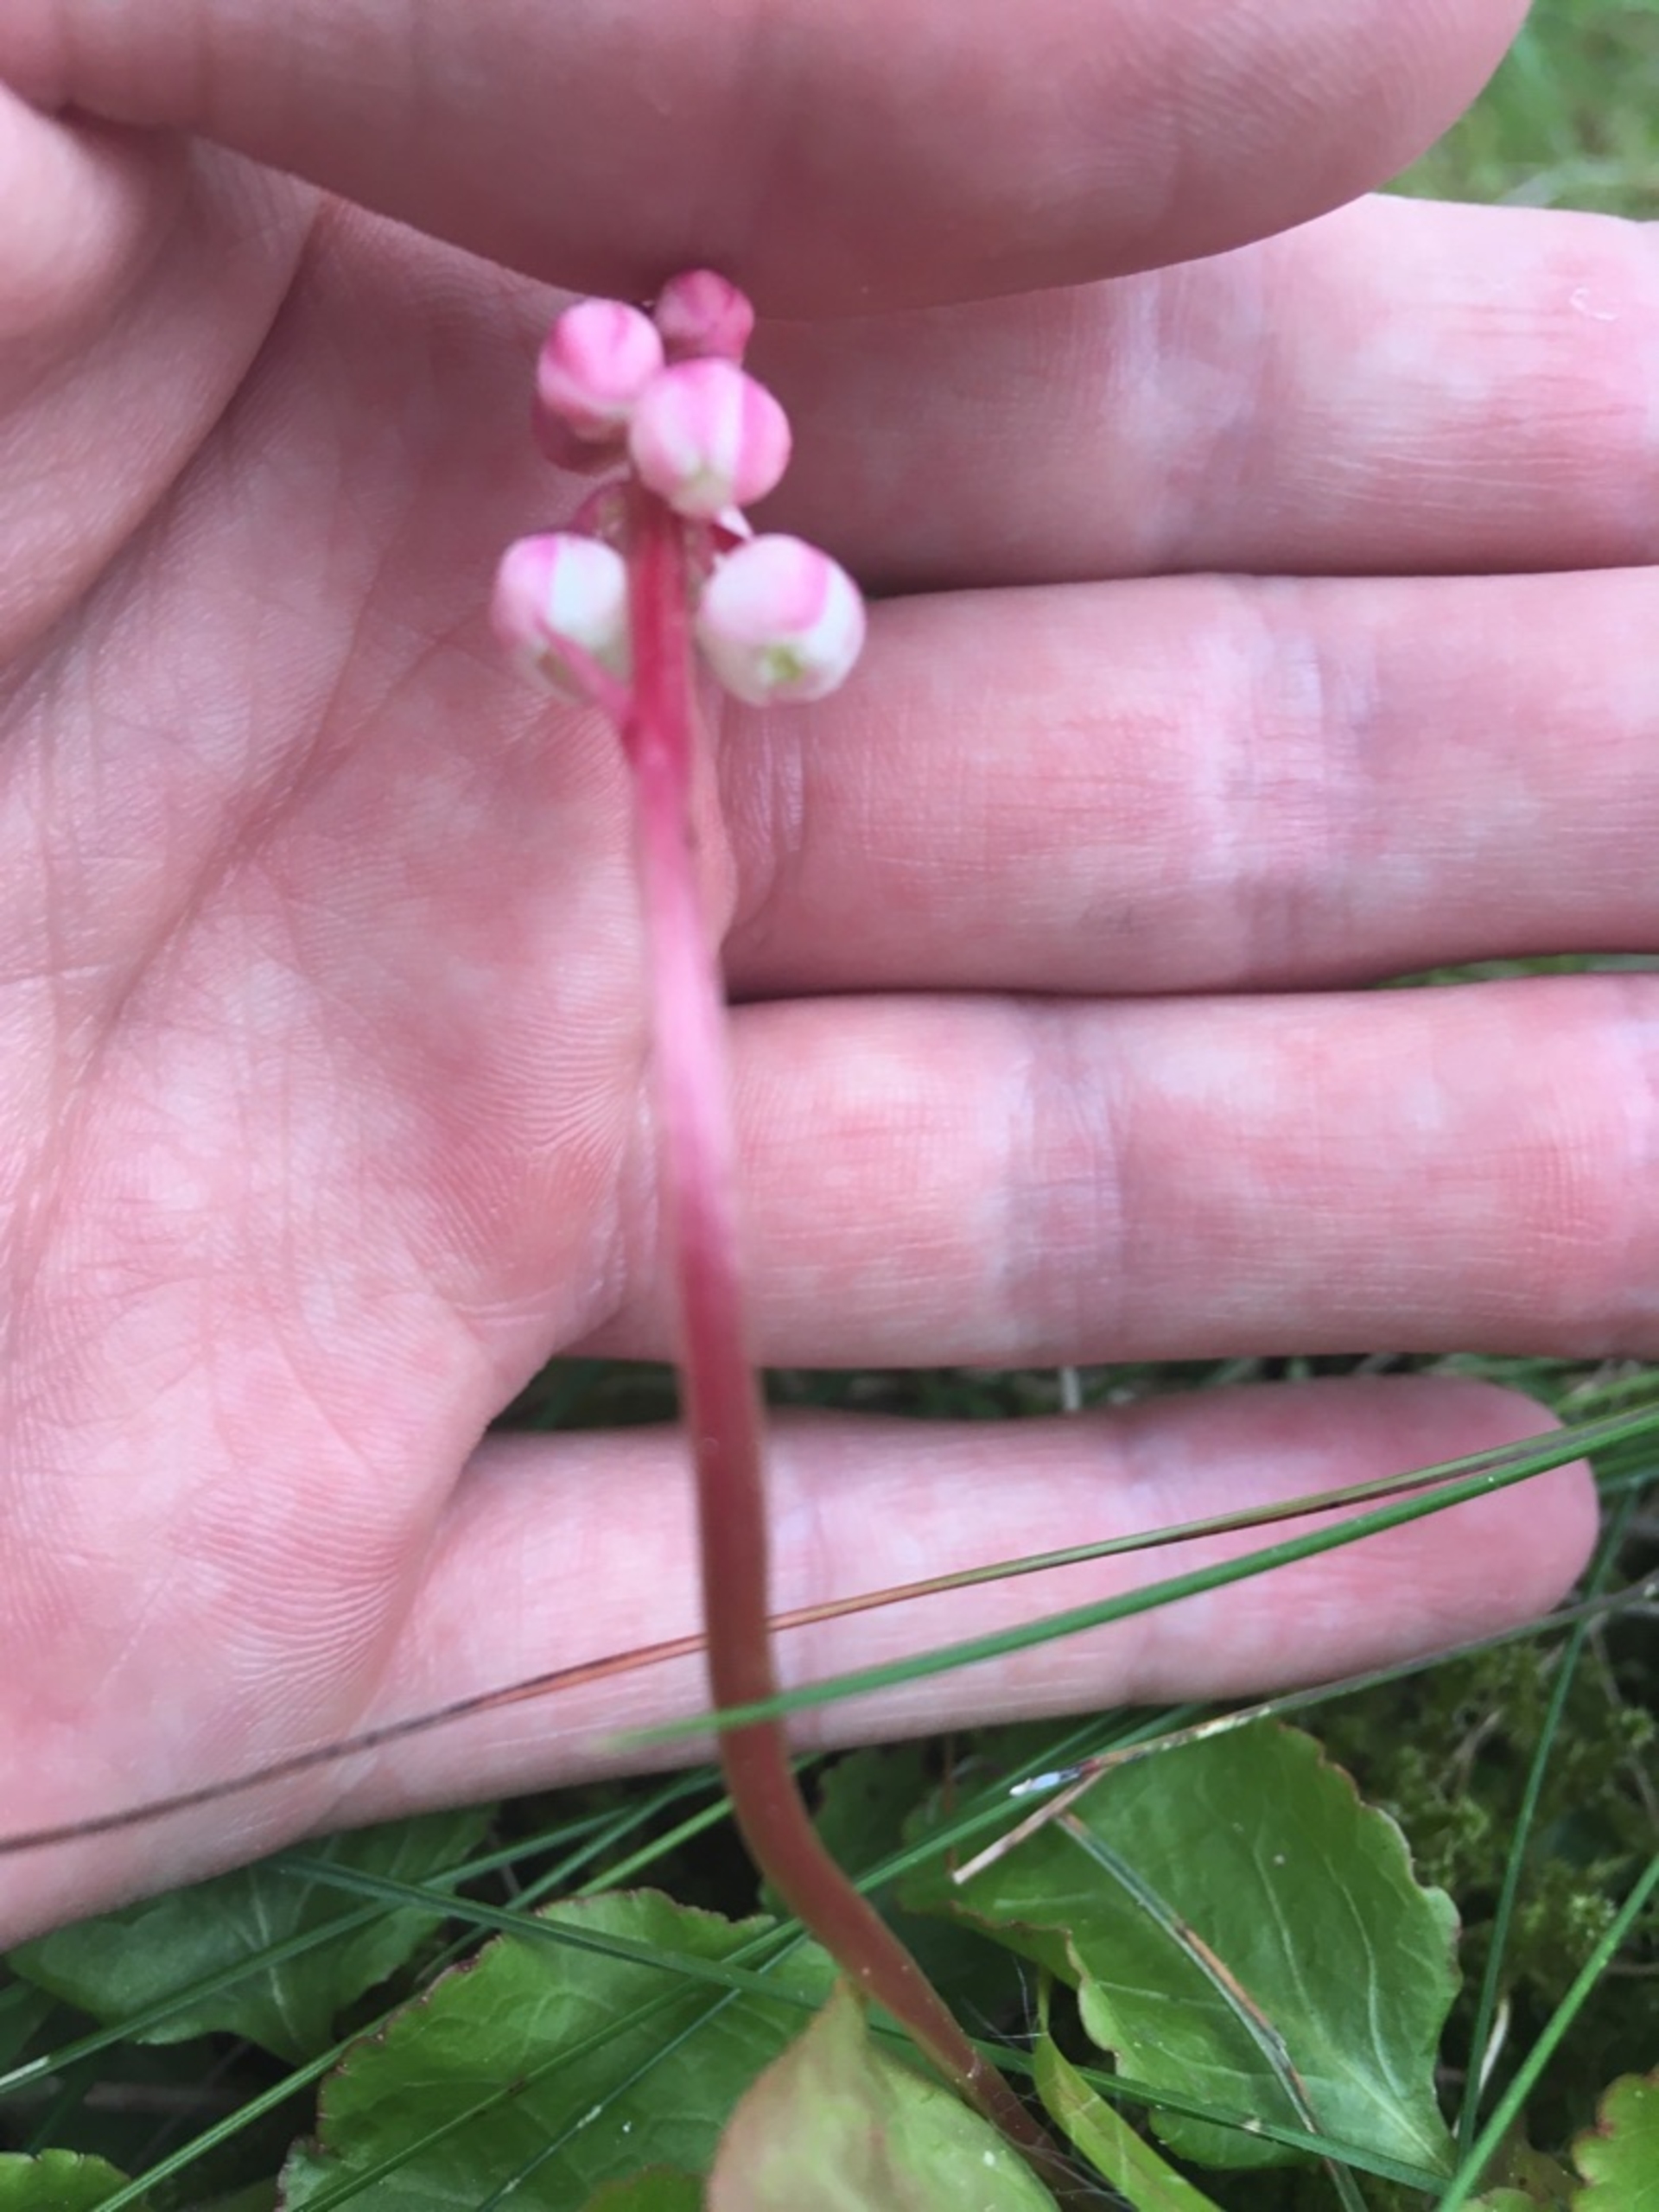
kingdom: Plantae
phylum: Tracheophyta
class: Magnoliopsida
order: Ericales
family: Ericaceae
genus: Pyrola
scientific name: Pyrola minor
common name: Liden vintergrøn
